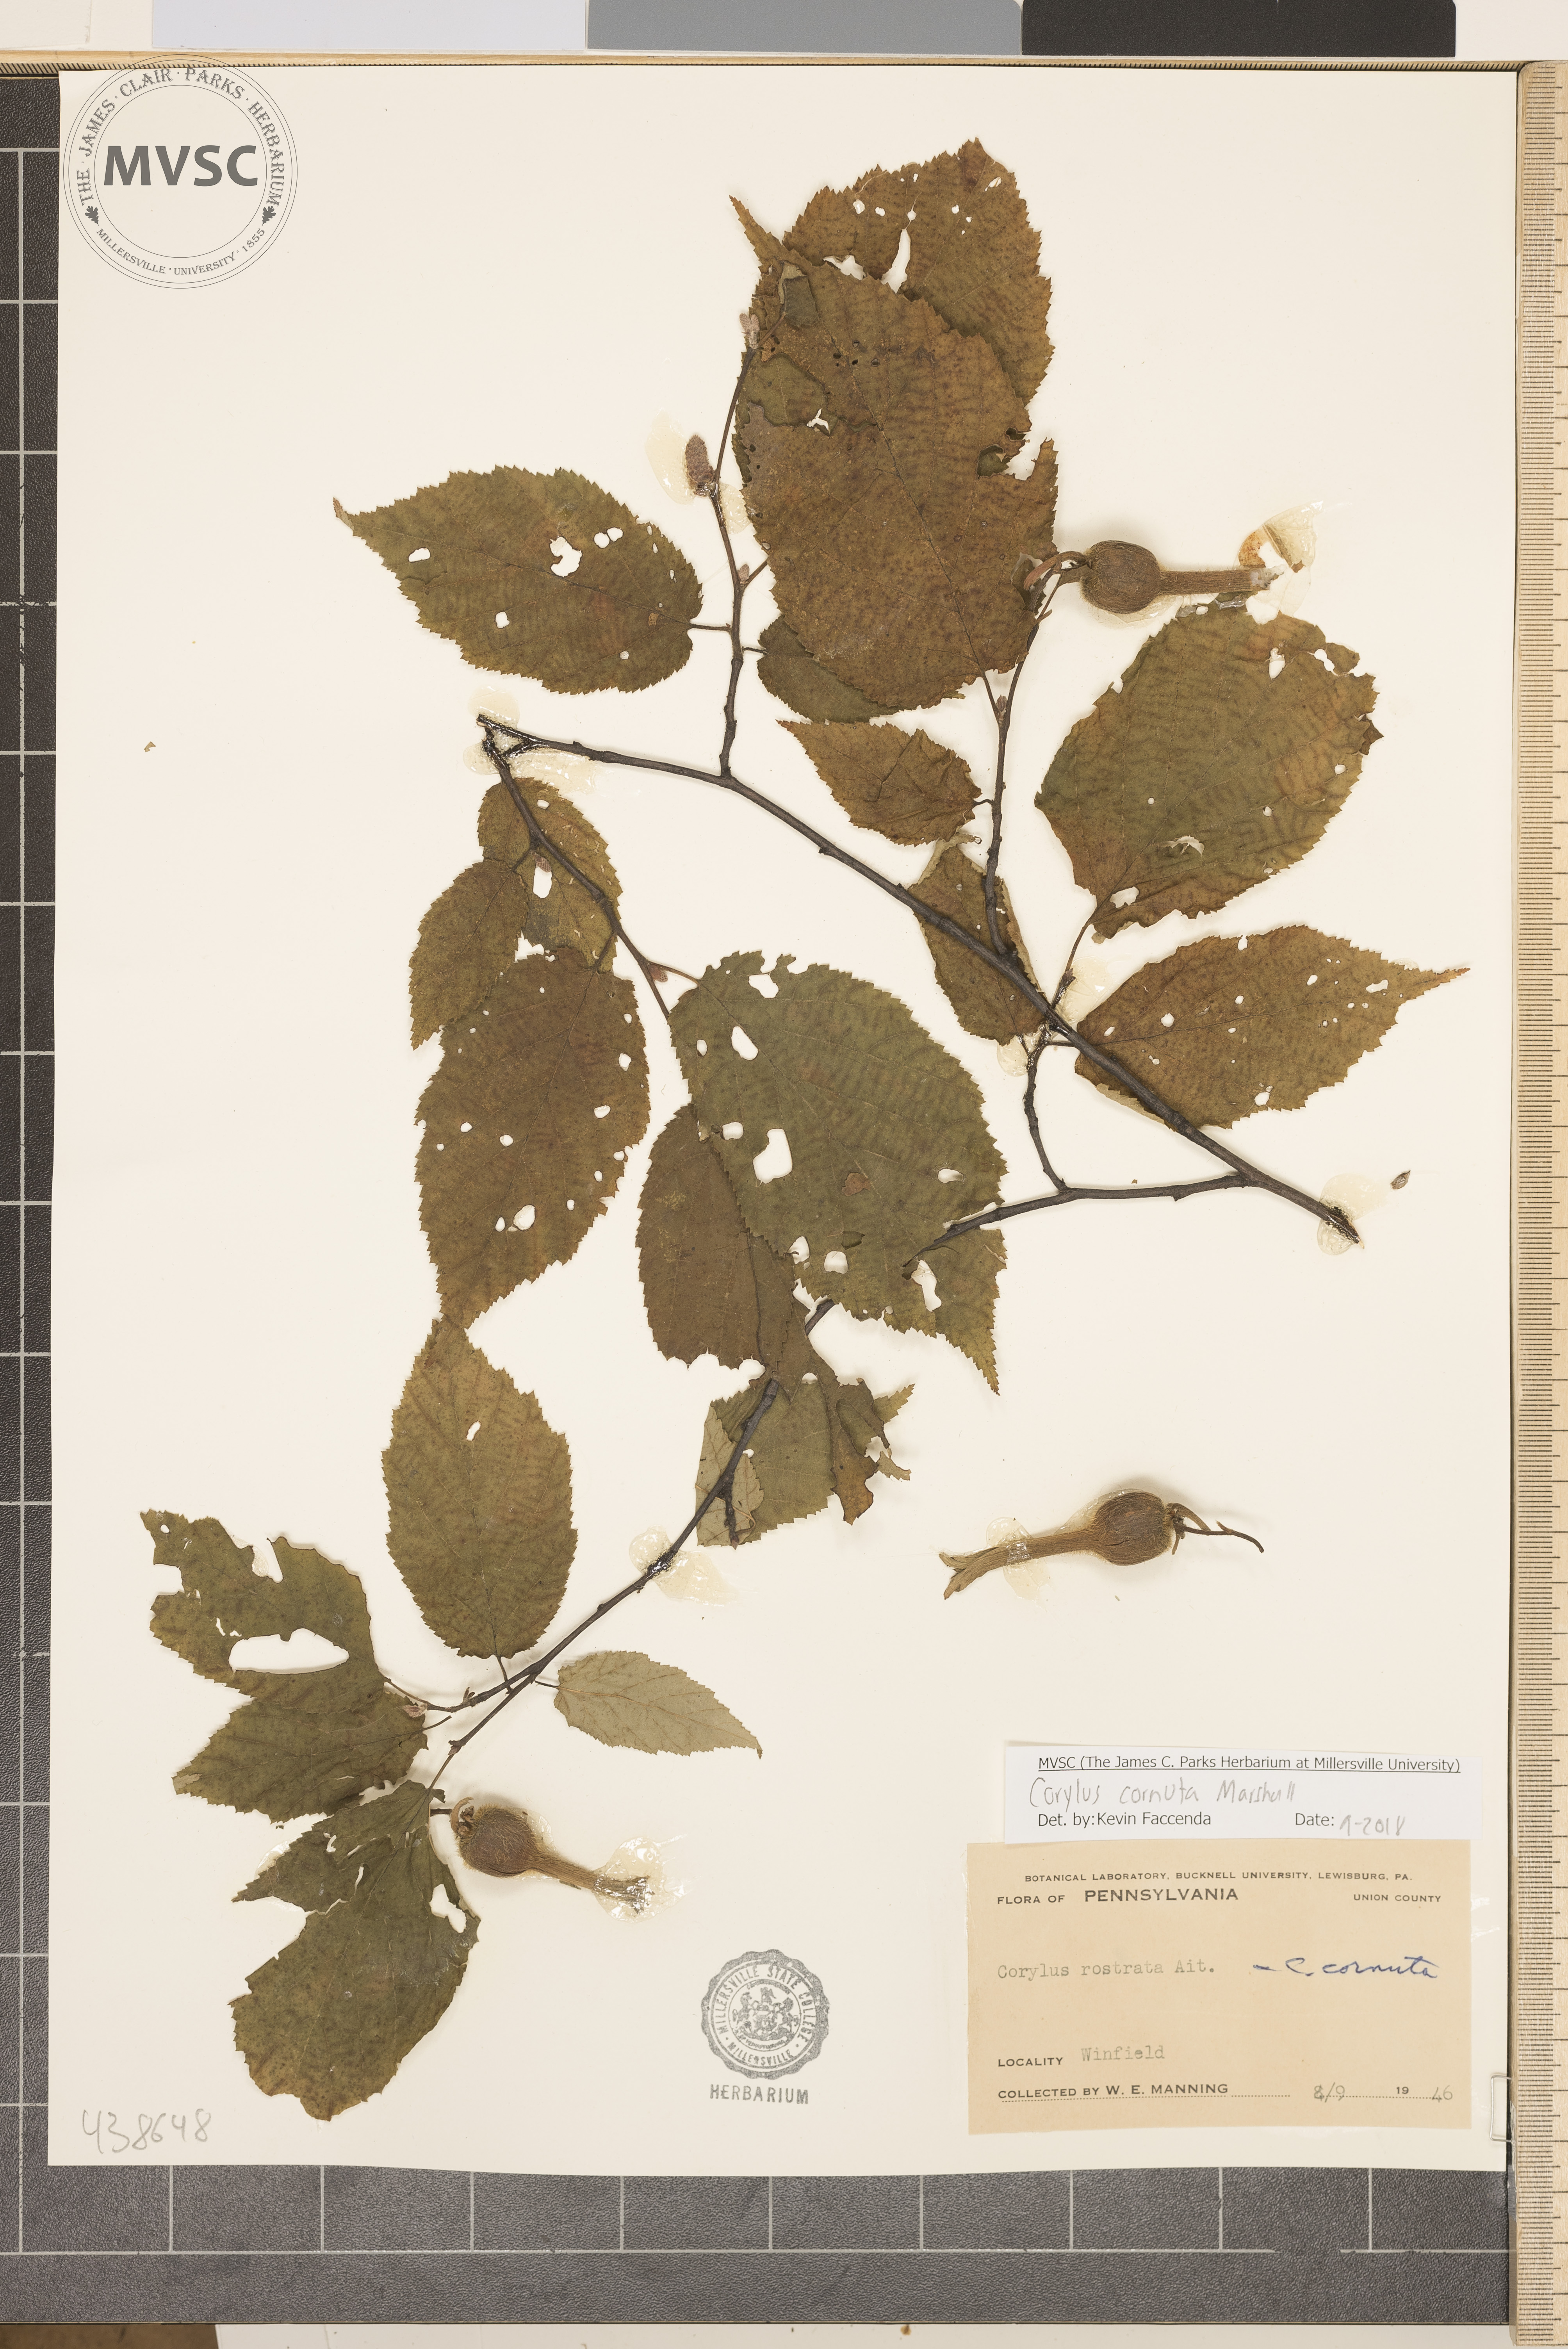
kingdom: Plantae
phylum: Tracheophyta
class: Magnoliopsida
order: Fagales
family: Betulaceae
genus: Corylus
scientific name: Corylus cornuta
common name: Beaked hazel
